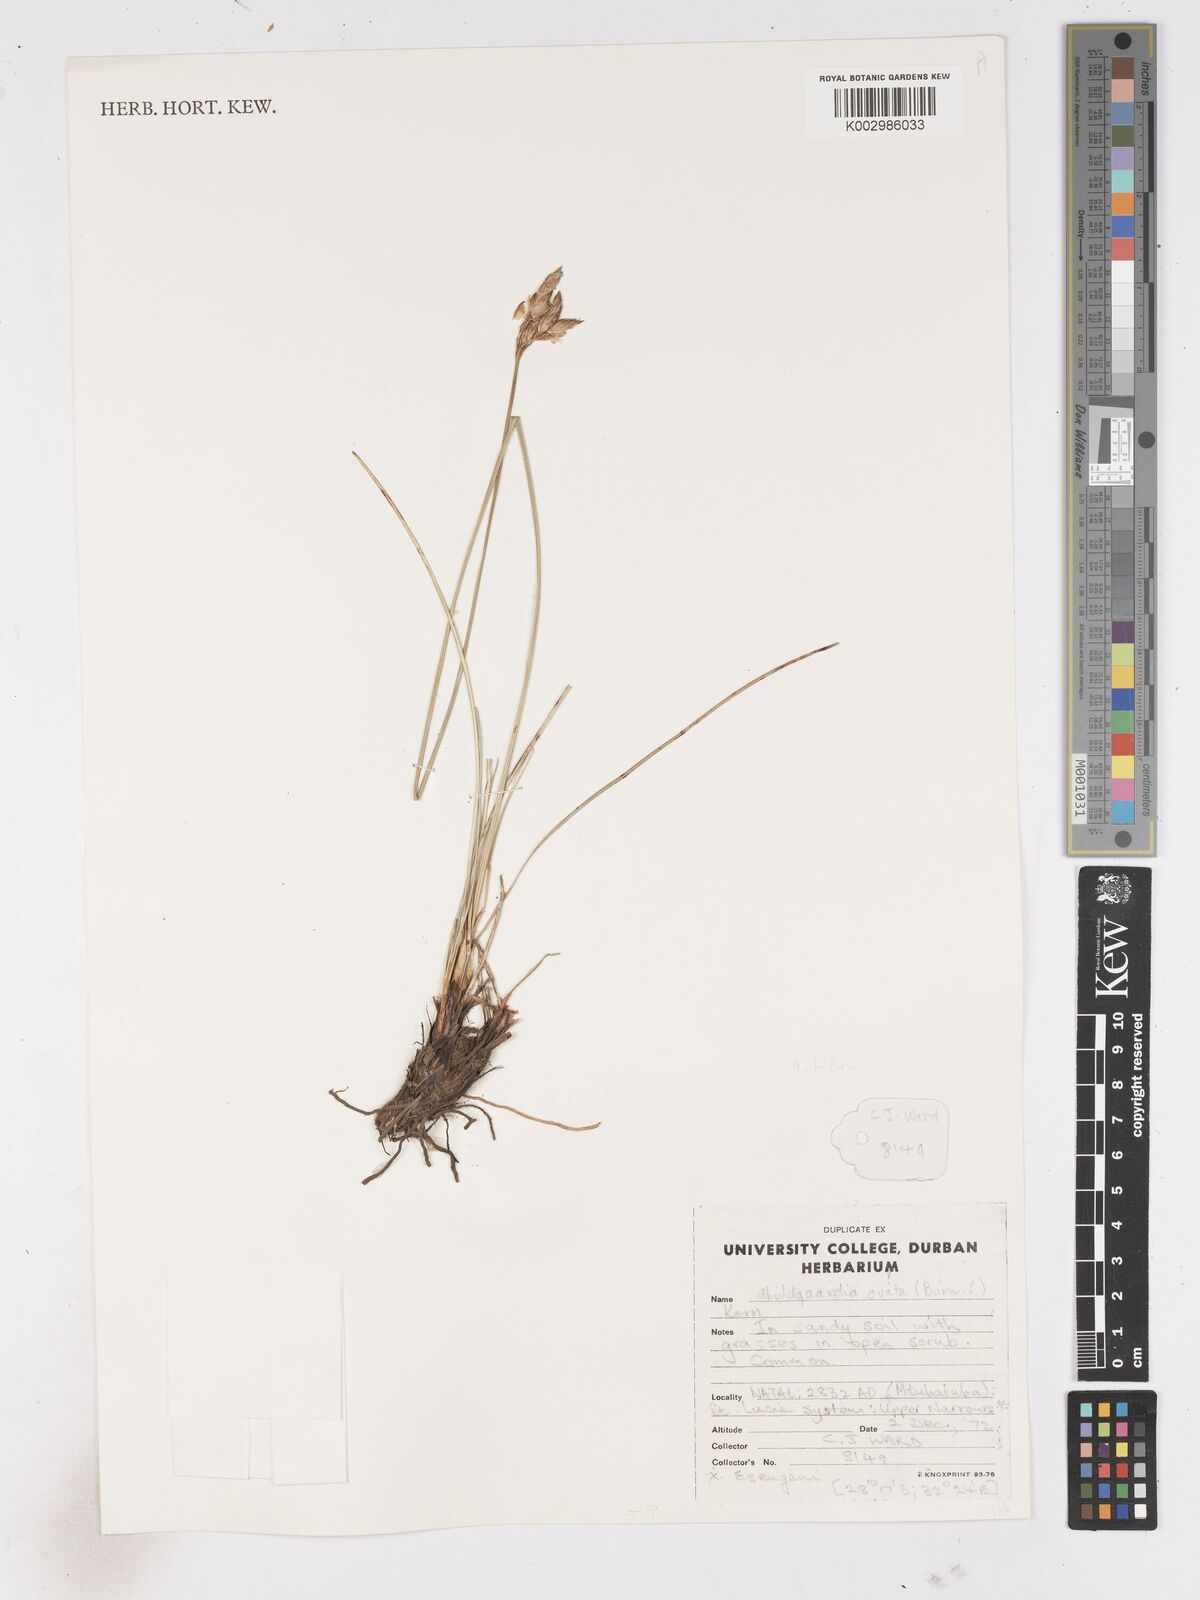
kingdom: Plantae
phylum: Tracheophyta
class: Liliopsida
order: Poales
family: Cyperaceae
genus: Abildgaardia
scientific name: Abildgaardia triflora
